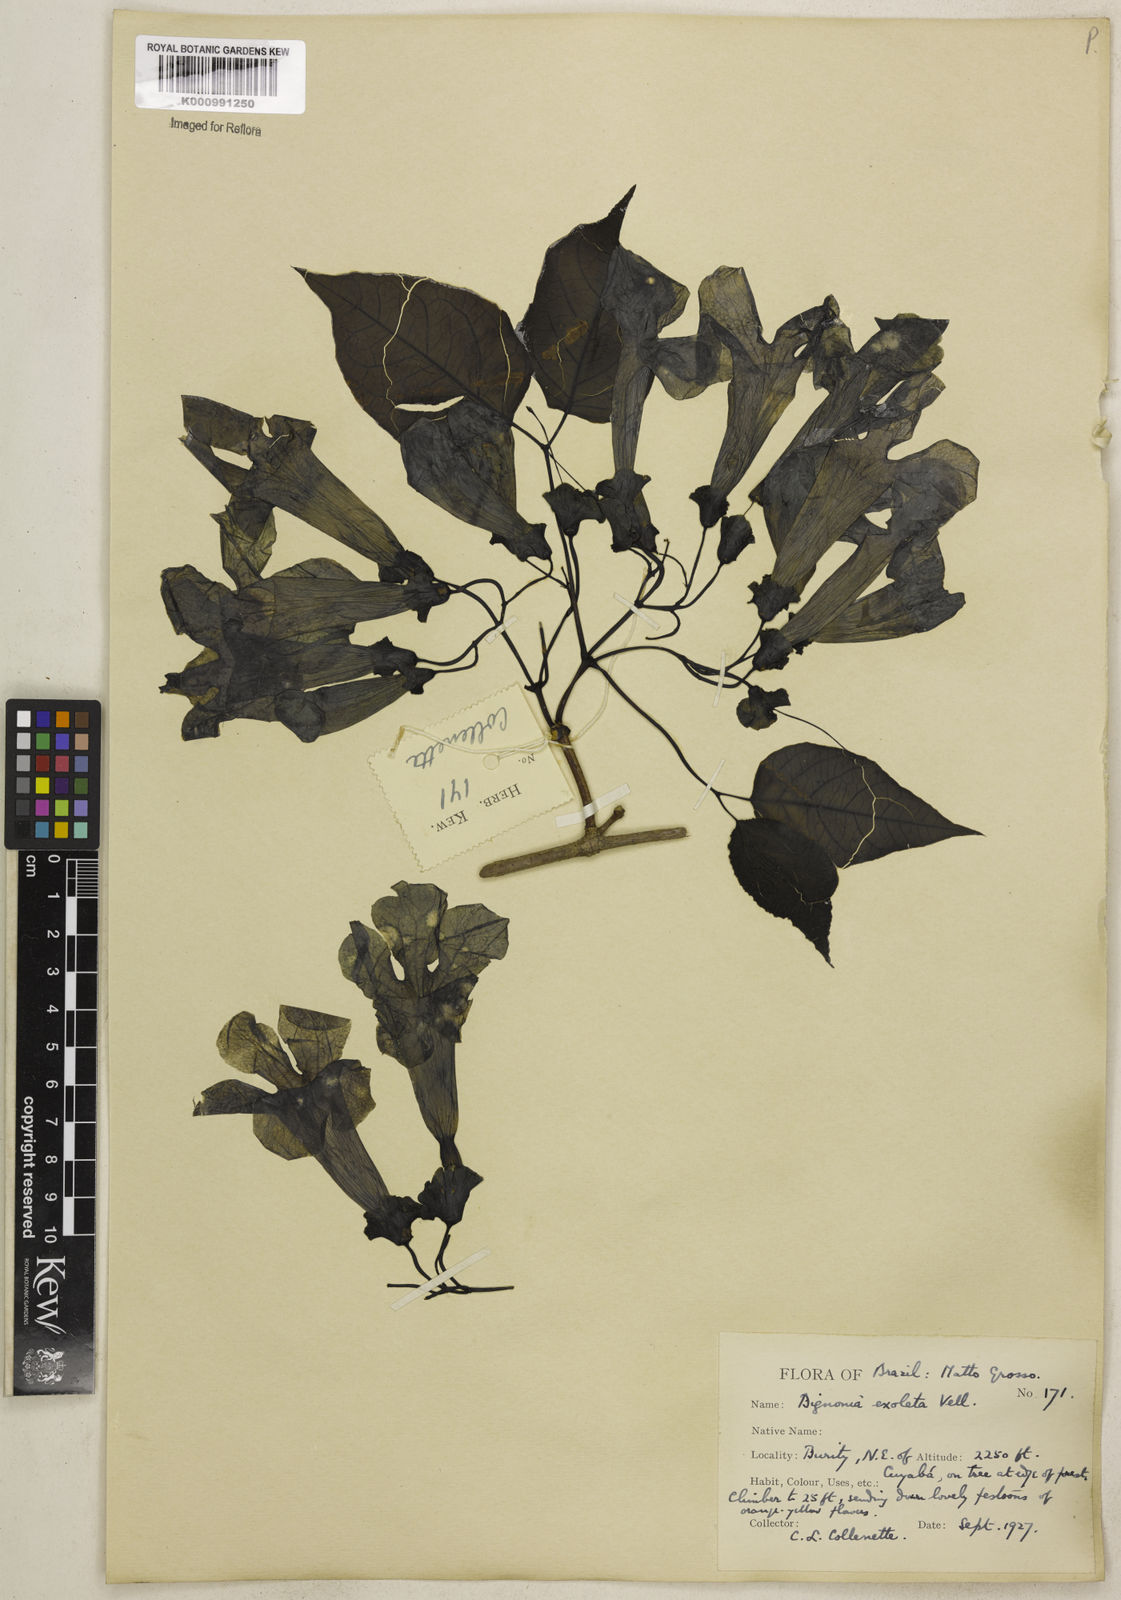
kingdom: Plantae
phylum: Tracheophyta
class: Magnoliopsida
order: Lamiales
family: Bignoniaceae
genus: Dolichandra
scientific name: Dolichandra unguis-cati
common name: Catclaw vine
